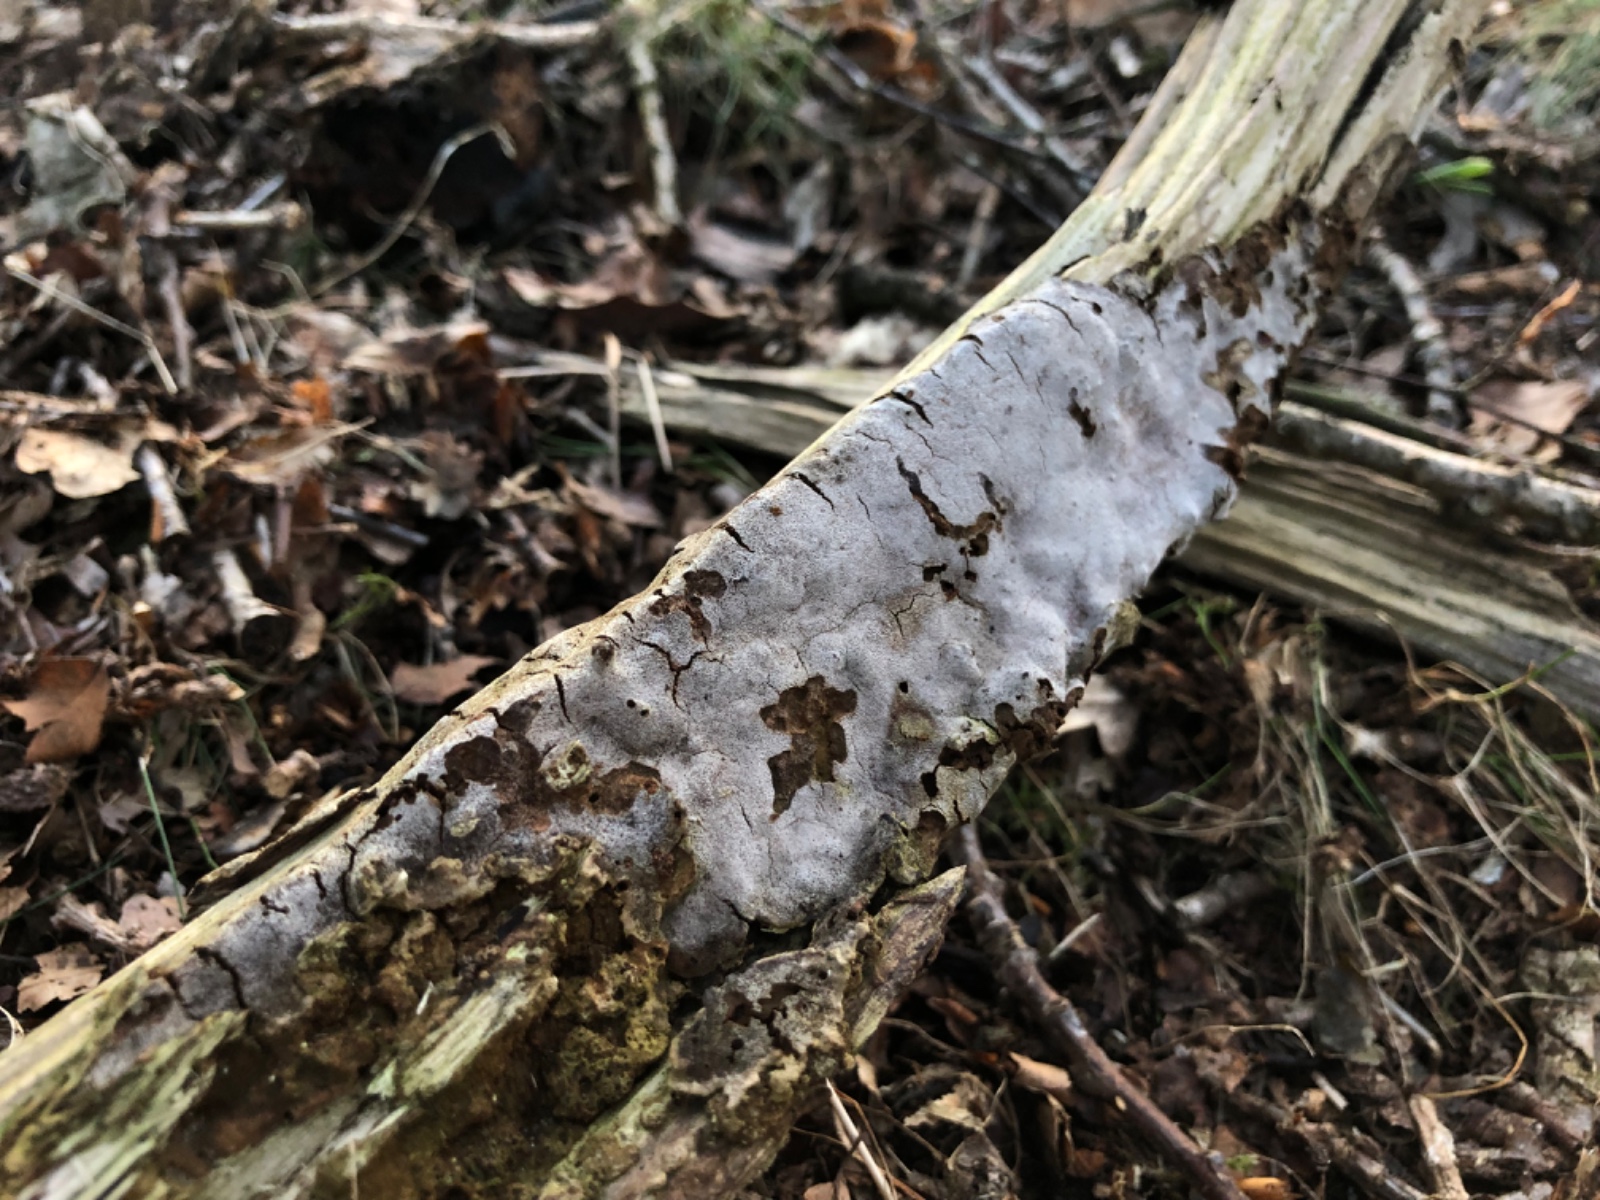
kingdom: Fungi
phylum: Basidiomycota
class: Agaricomycetes
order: Hymenochaetales
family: Hymenochaetaceae
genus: Phellinus
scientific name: Phellinus laevigatus
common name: glat ildporesvamp
